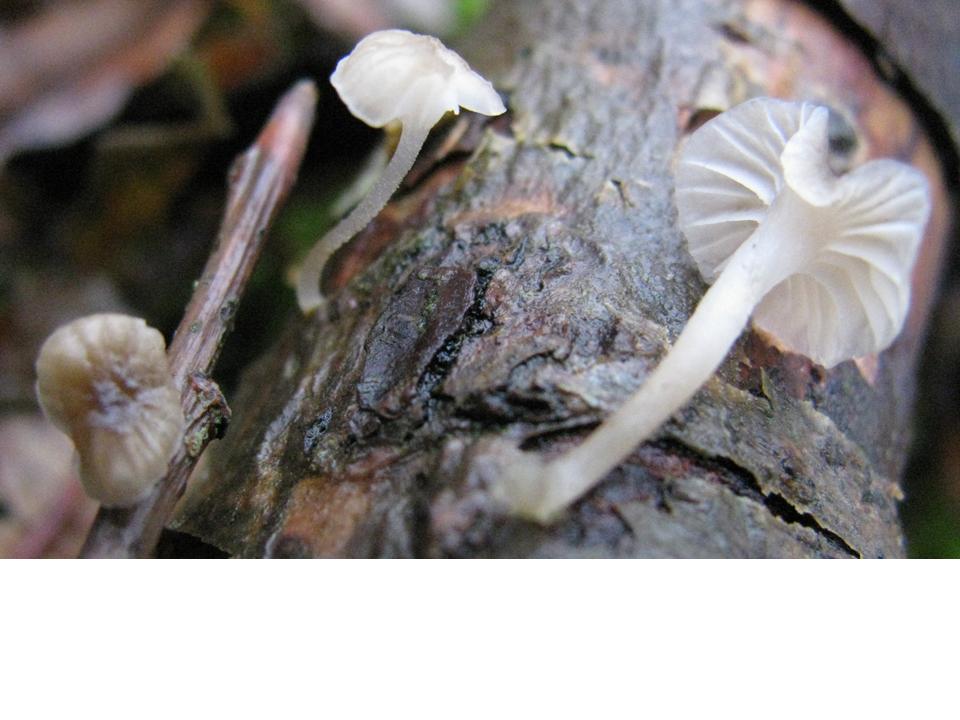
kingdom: Fungi
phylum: Basidiomycota
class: Agaricomycetes
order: Agaricales
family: Porotheleaceae
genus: Phloeomana
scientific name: Phloeomana speirea
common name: kvist-huesvamp
